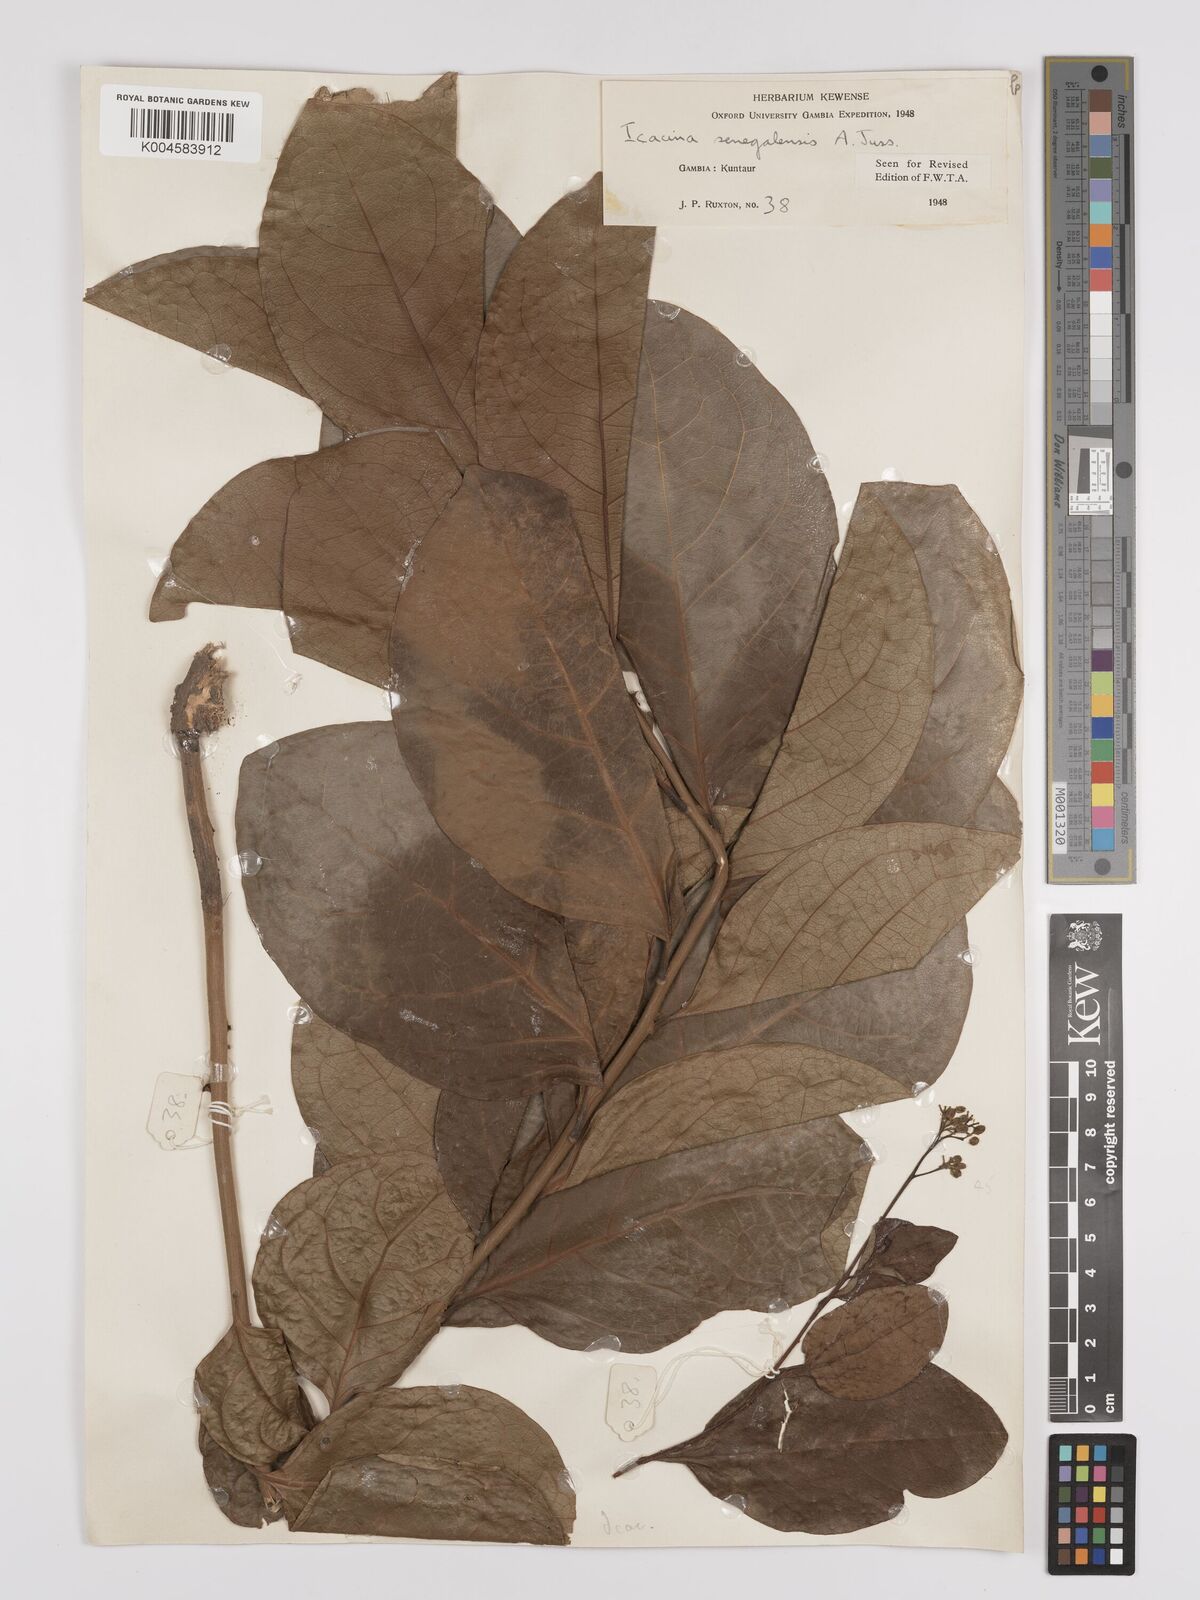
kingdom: Plantae
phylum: Tracheophyta
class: Magnoliopsida
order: Icacinales
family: Icacinaceae
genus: Icacina
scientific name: Icacina oliviformis
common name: False yam
